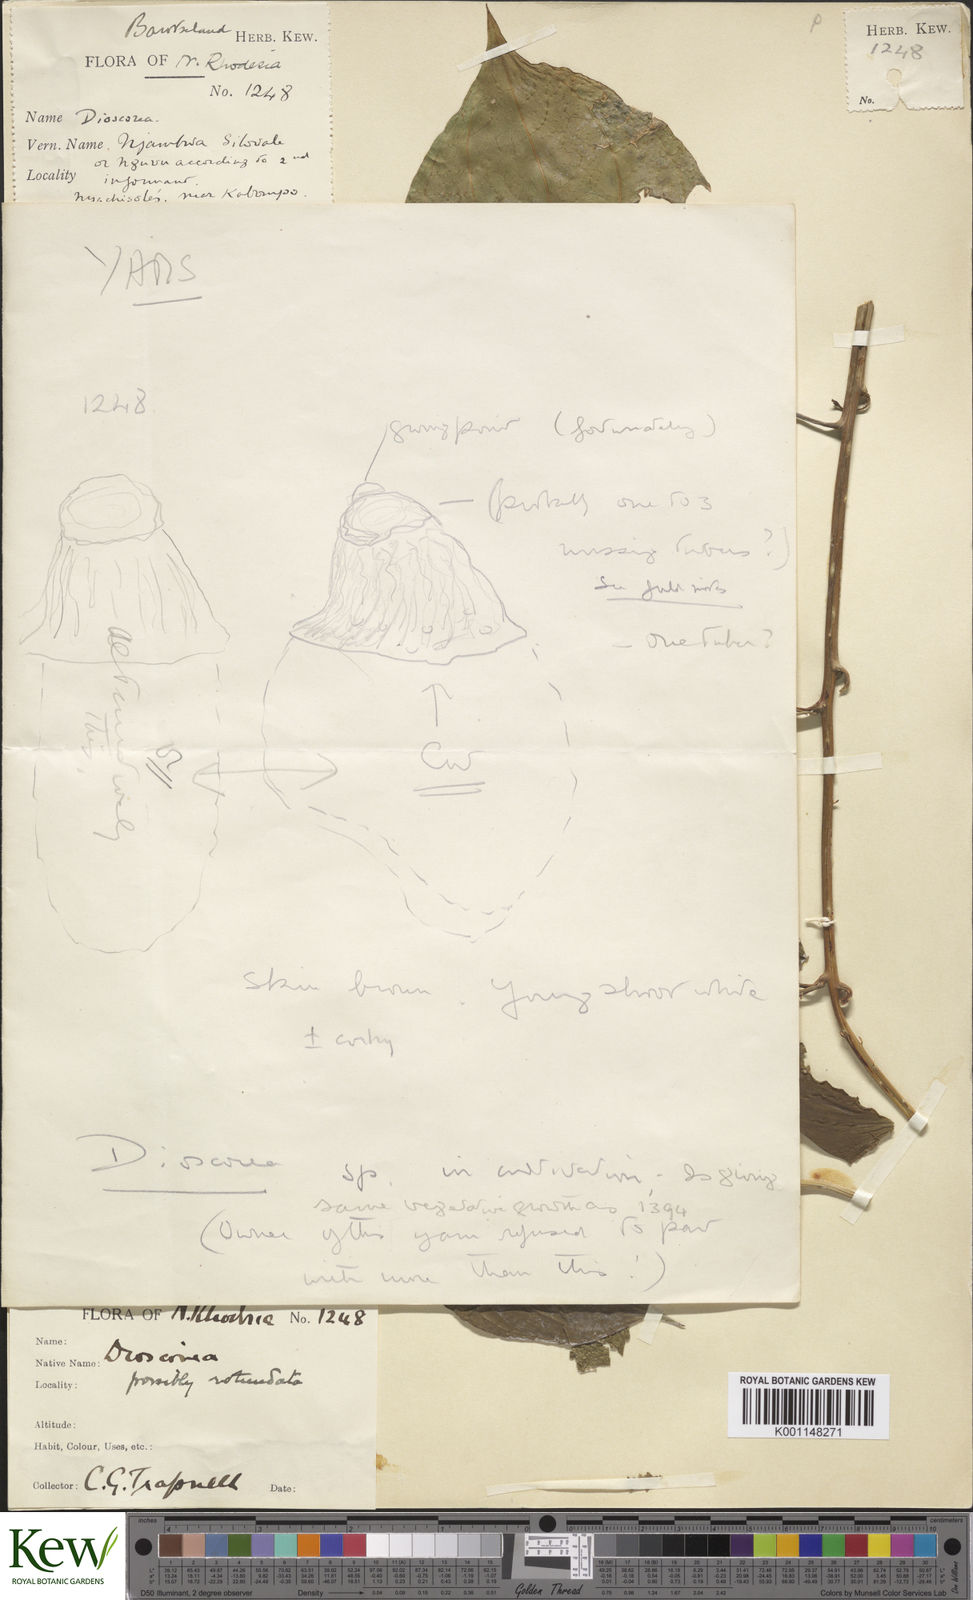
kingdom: Plantae
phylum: Tracheophyta
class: Liliopsida
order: Dioscoreales
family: Dioscoreaceae
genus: Dioscorea
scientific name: Dioscorea praehensilis
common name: Bush yam
